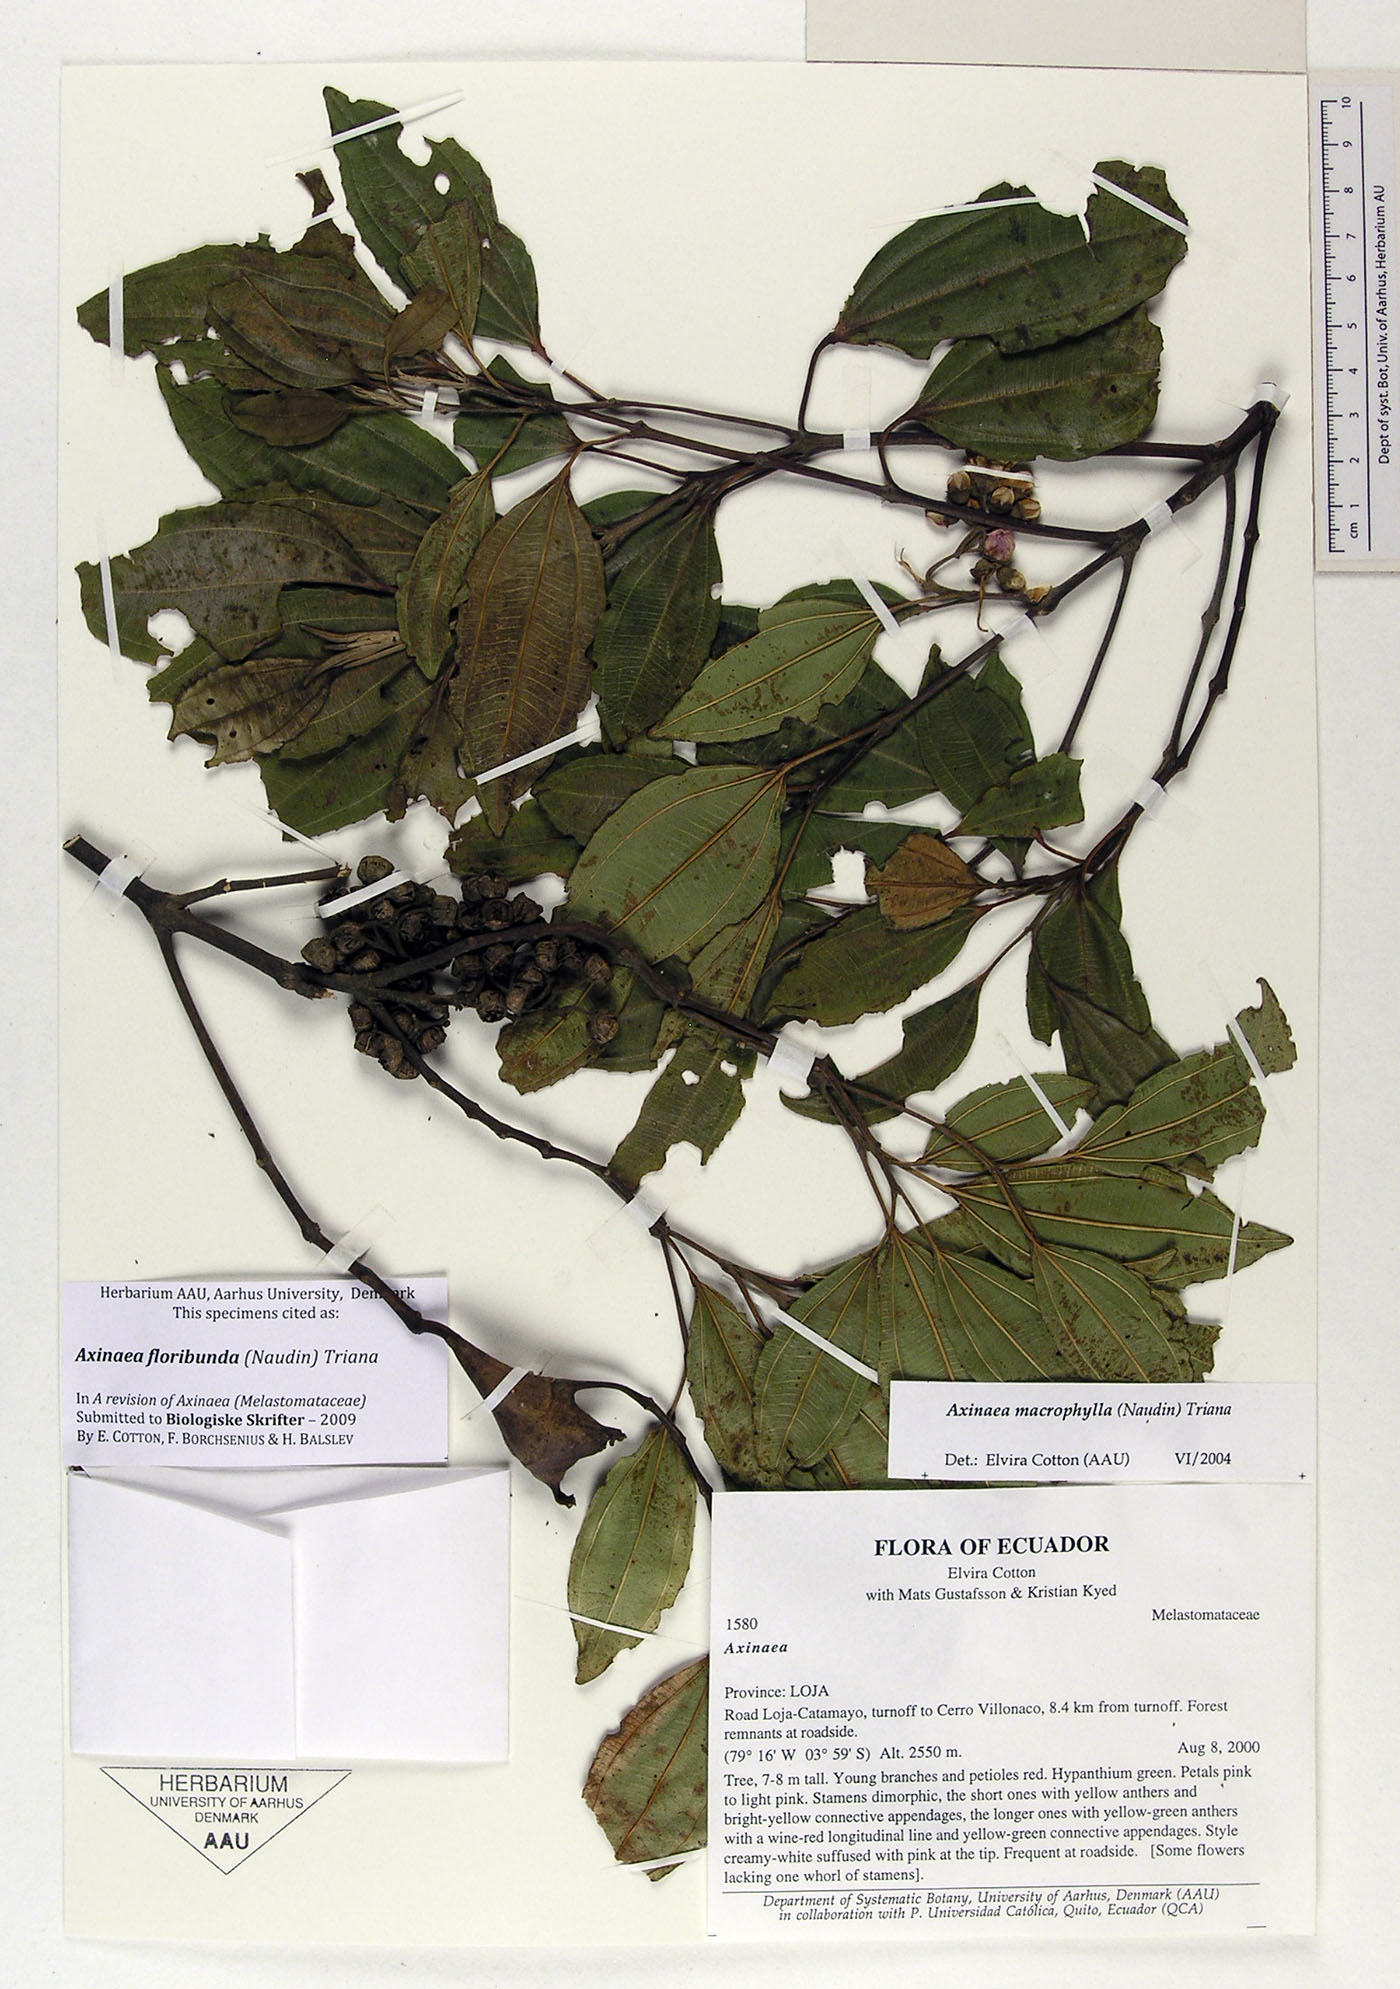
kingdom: Plantae
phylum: Tracheophyta
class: Magnoliopsida
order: Myrtales
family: Melastomataceae
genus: Axinaea
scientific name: Axinaea floribunda
